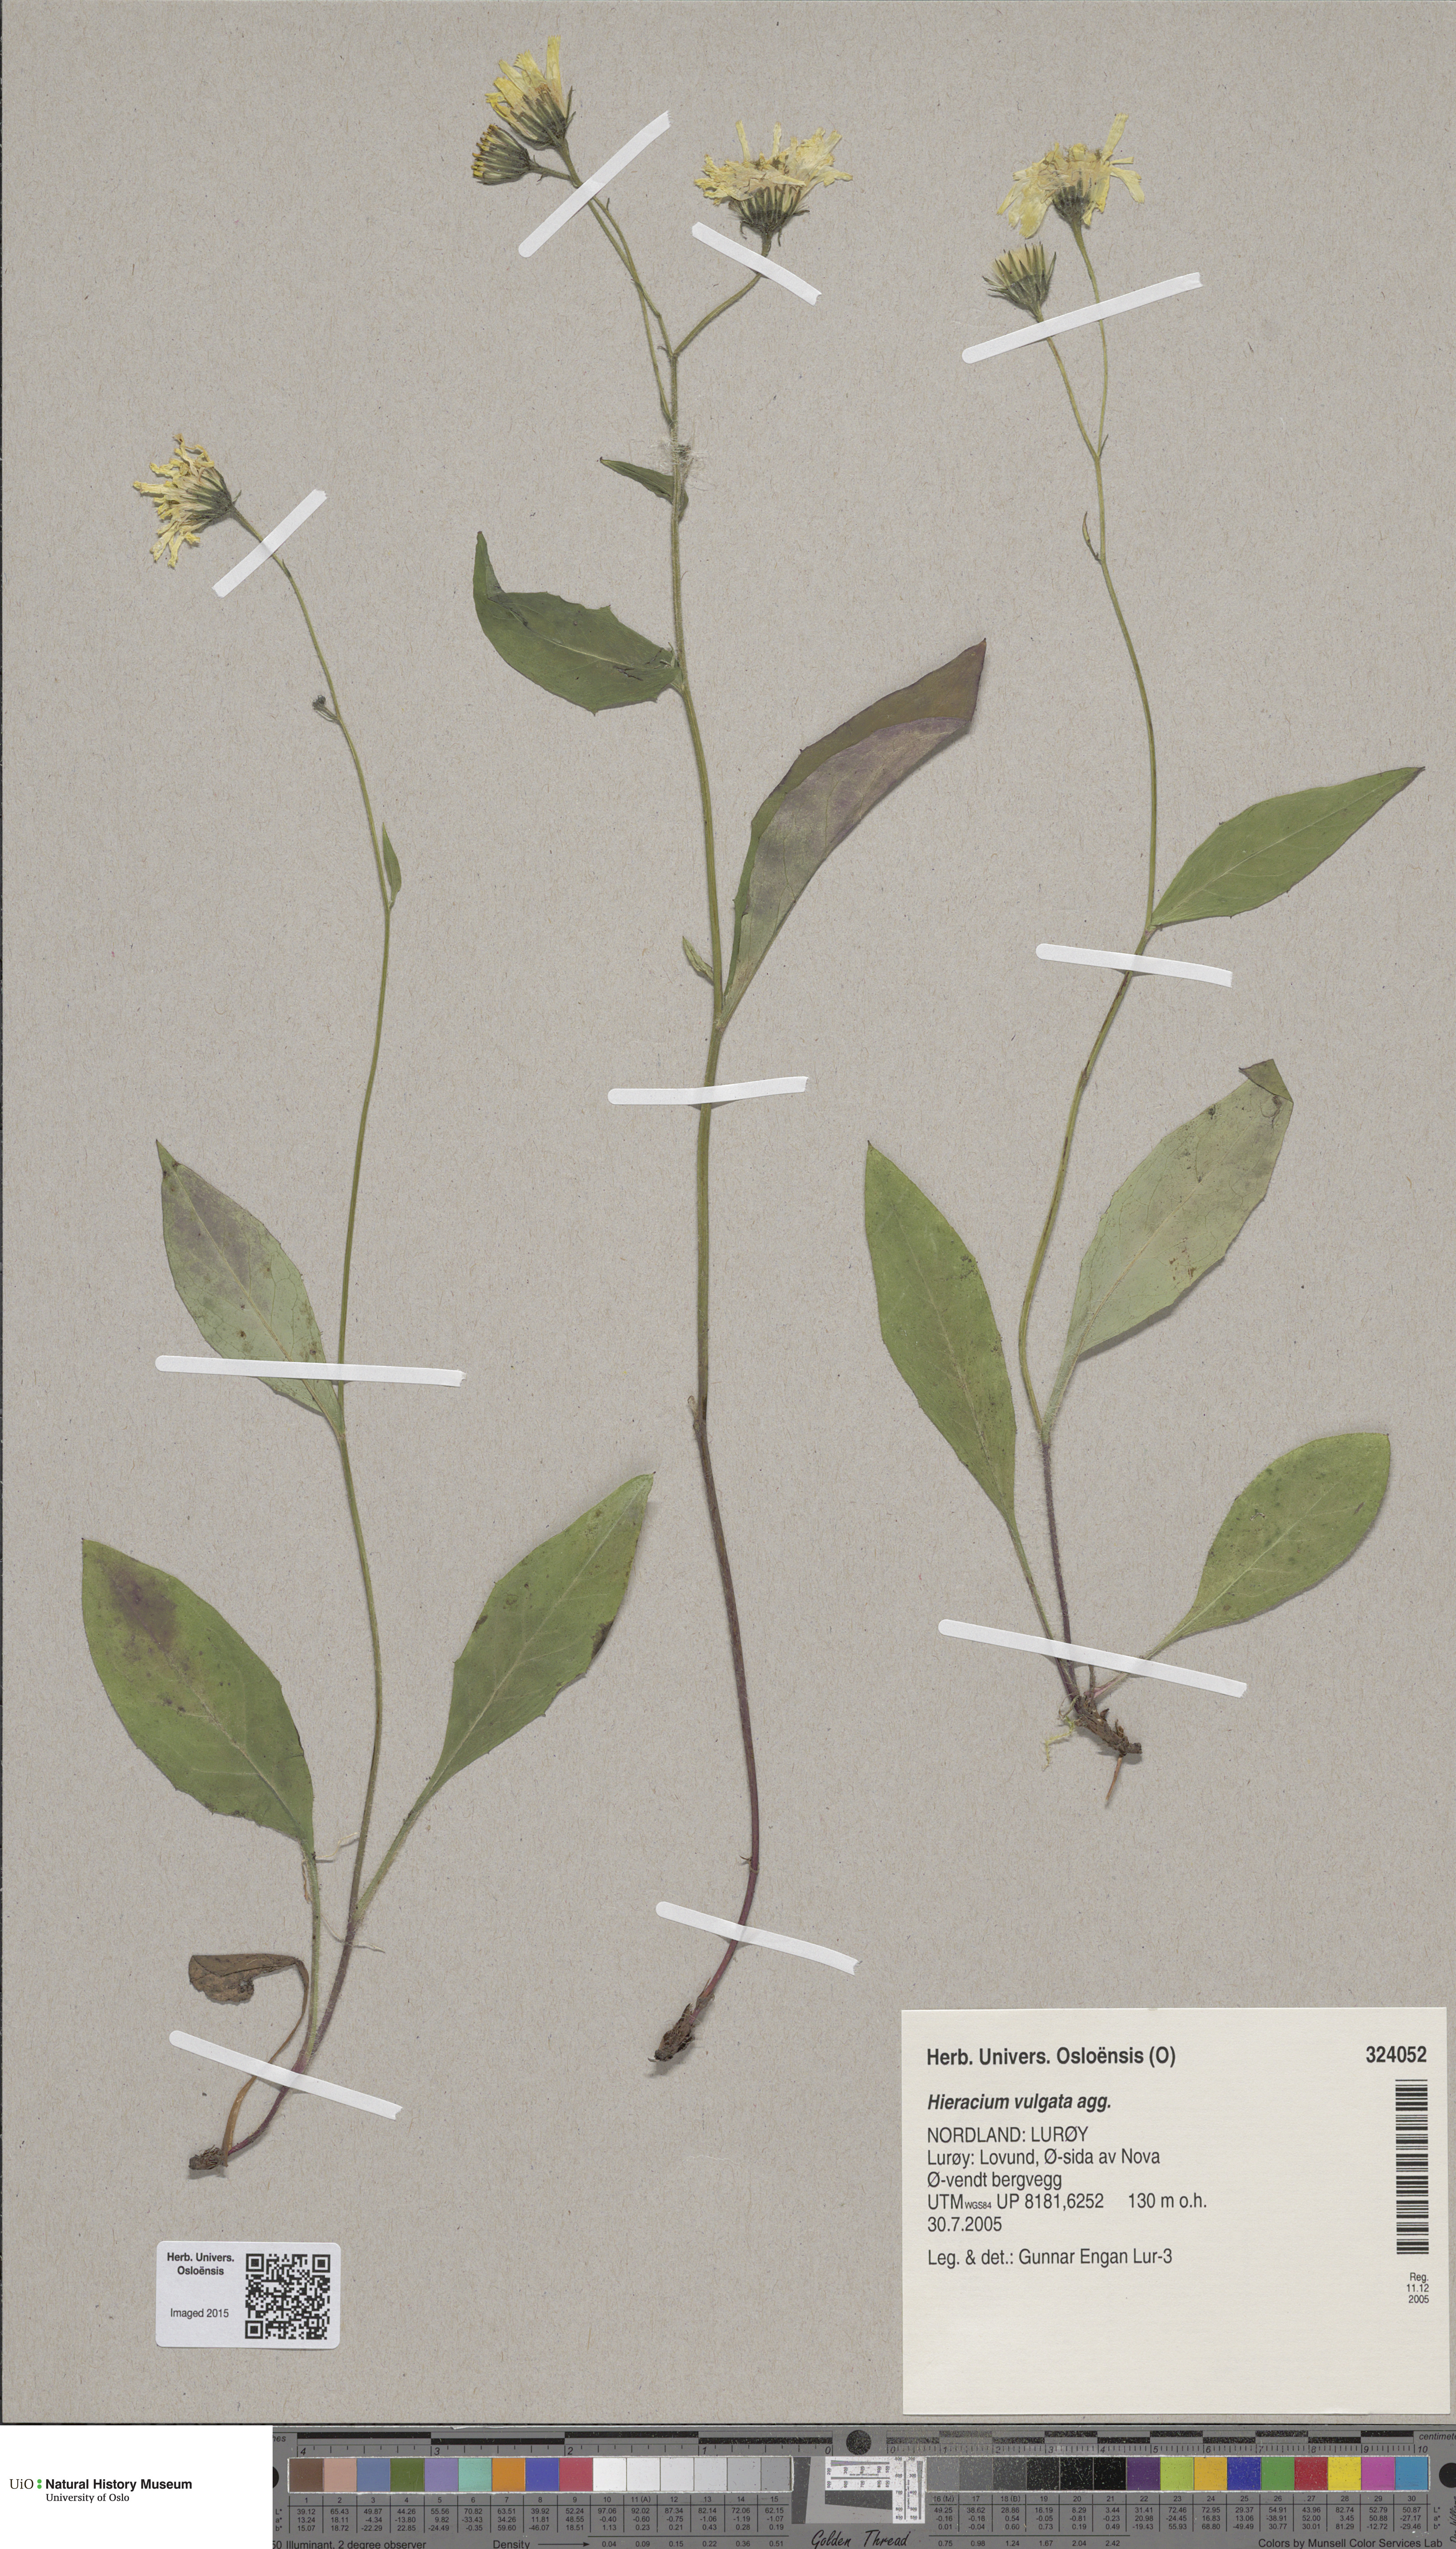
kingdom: Plantae
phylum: Tracheophyta
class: Magnoliopsida
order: Asterales
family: Asteraceae
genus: Hieracium
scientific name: Hieracium vulgatum
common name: Common hawkweed
